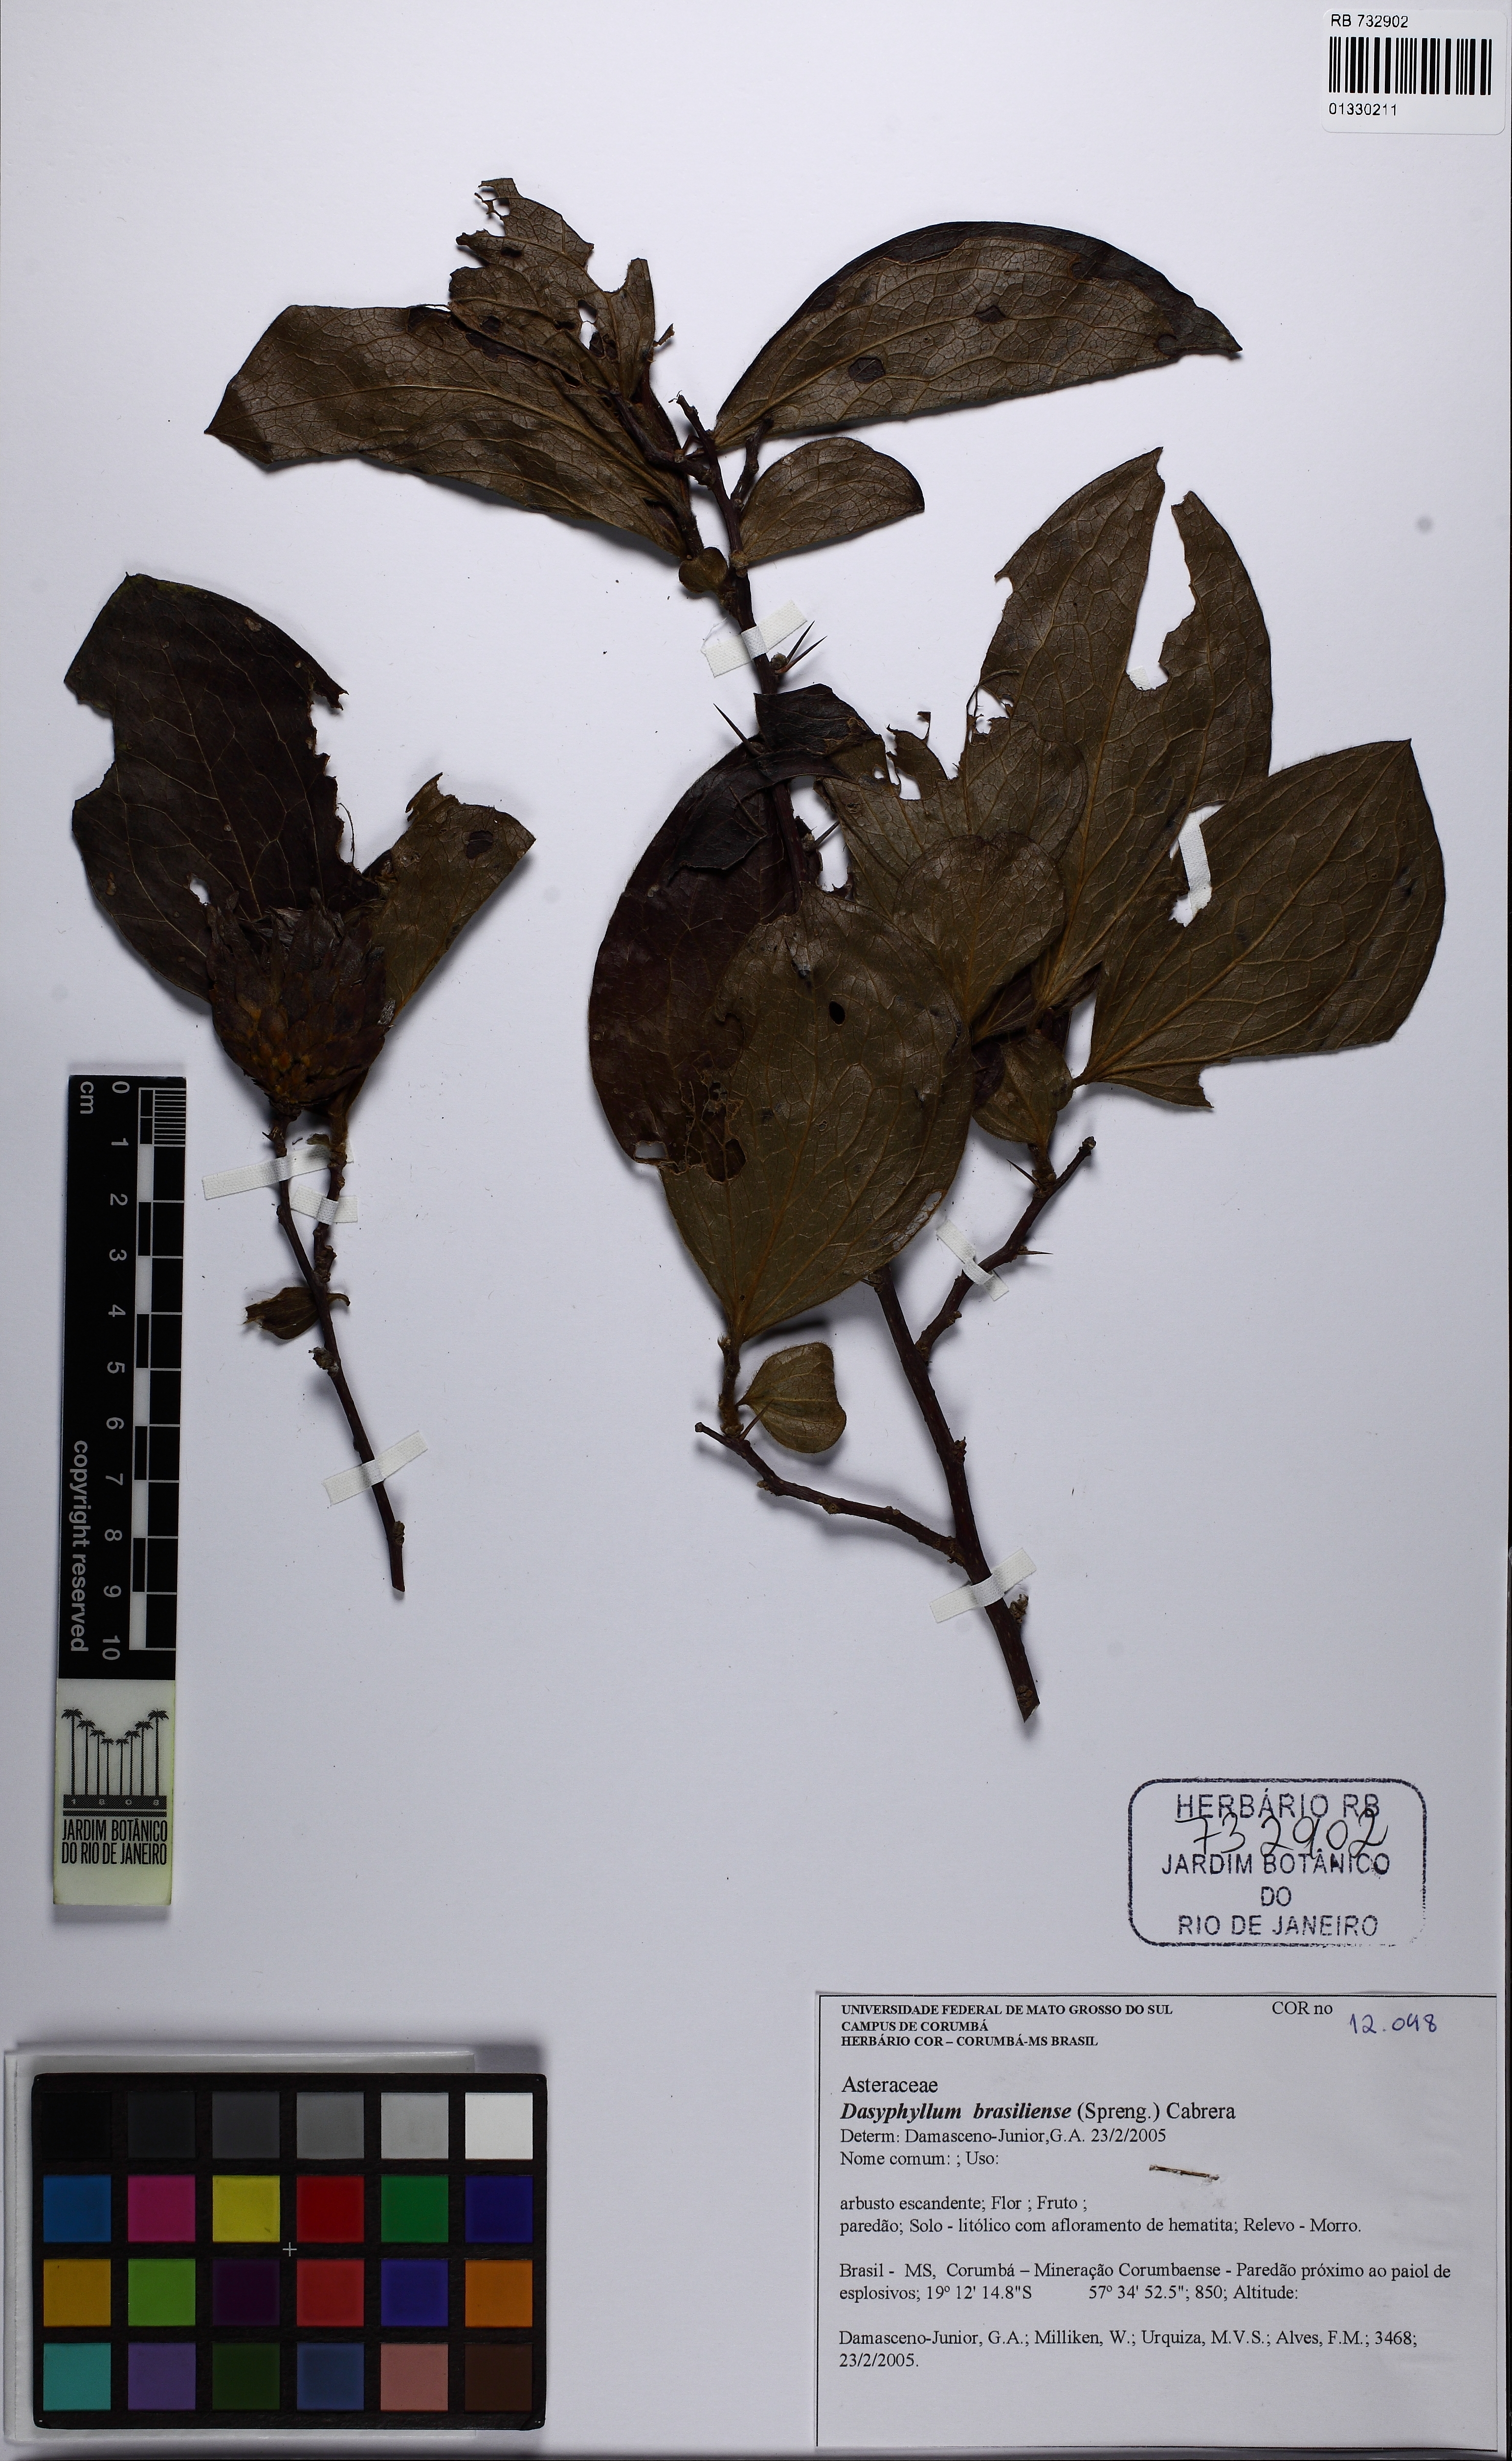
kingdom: Plantae
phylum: Tracheophyta
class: Magnoliopsida
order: Asterales
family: Asteraceae
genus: Dasyphyllum
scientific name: Dasyphyllum brasiliense
